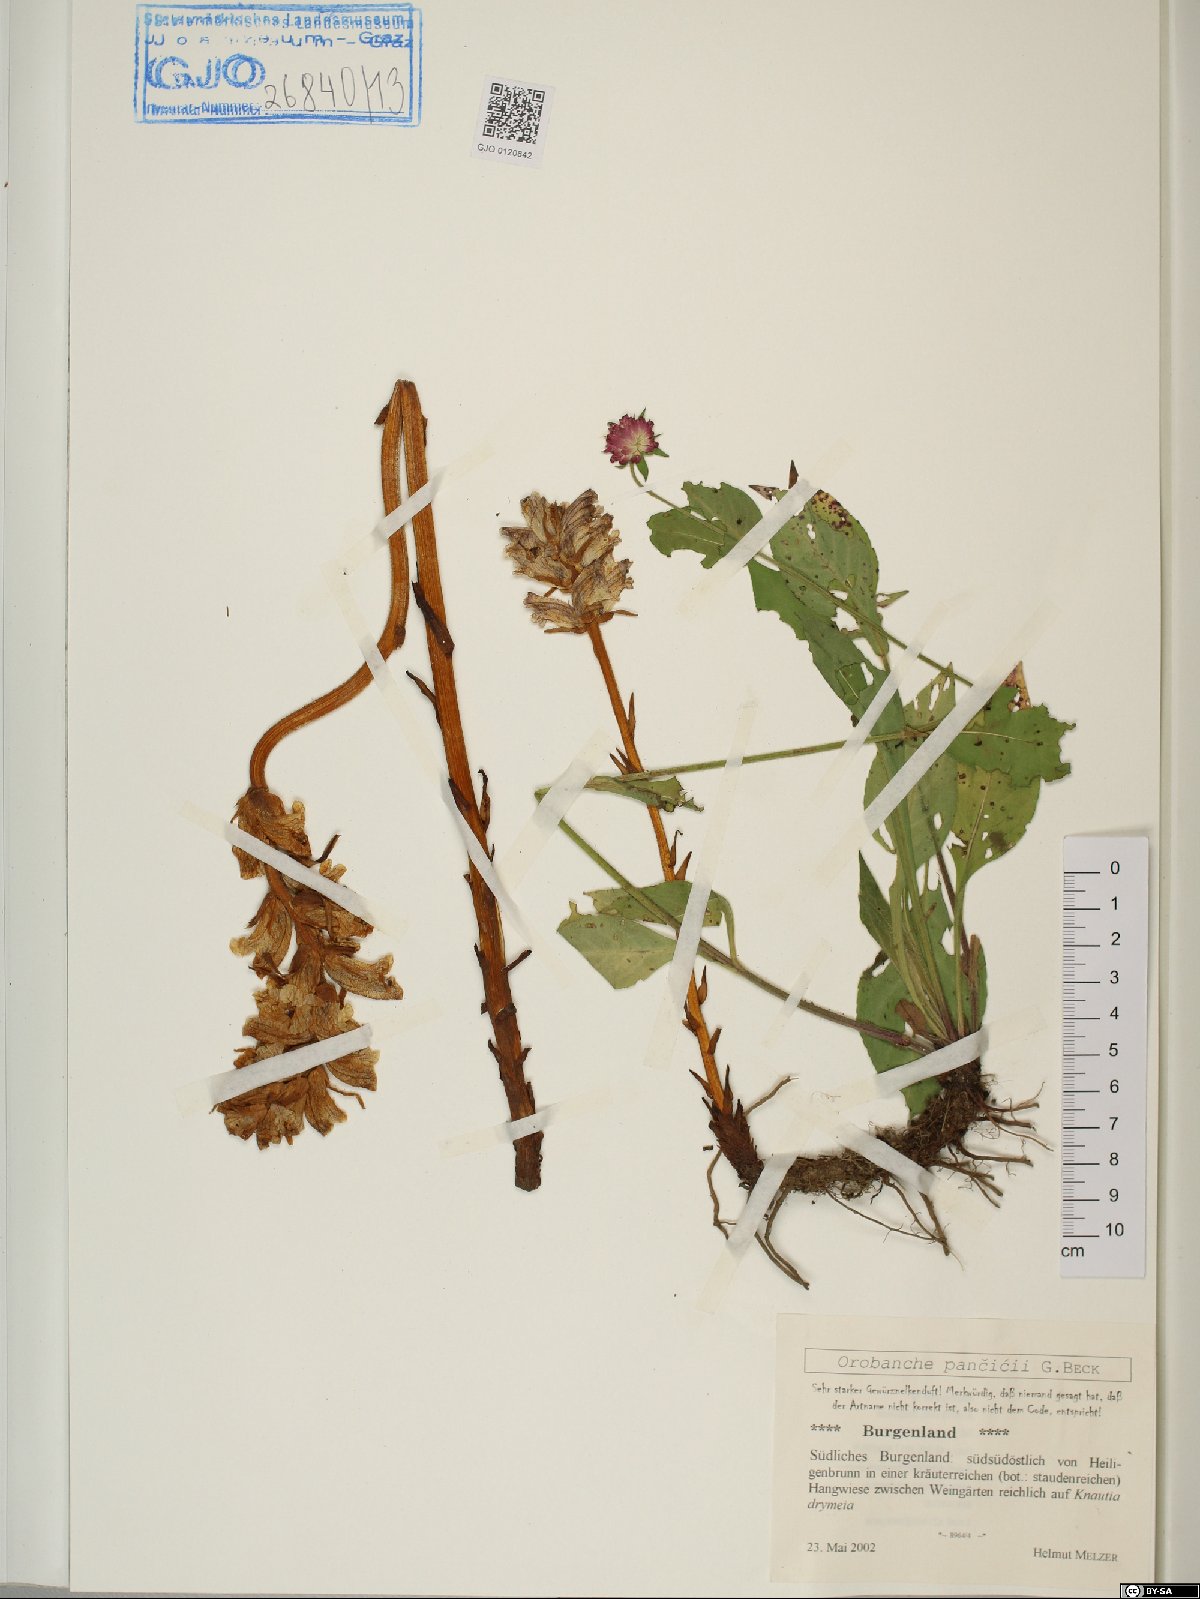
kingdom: Plantae
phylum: Tracheophyta
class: Magnoliopsida
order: Lamiales
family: Orobanchaceae
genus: Orobanche
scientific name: Orobanche pancicii
